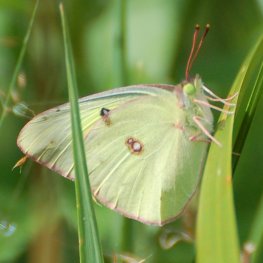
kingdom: Animalia
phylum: Arthropoda
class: Insecta
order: Lepidoptera
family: Pieridae
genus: Colias
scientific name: Colias eurytheme
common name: Orange Sulphur
